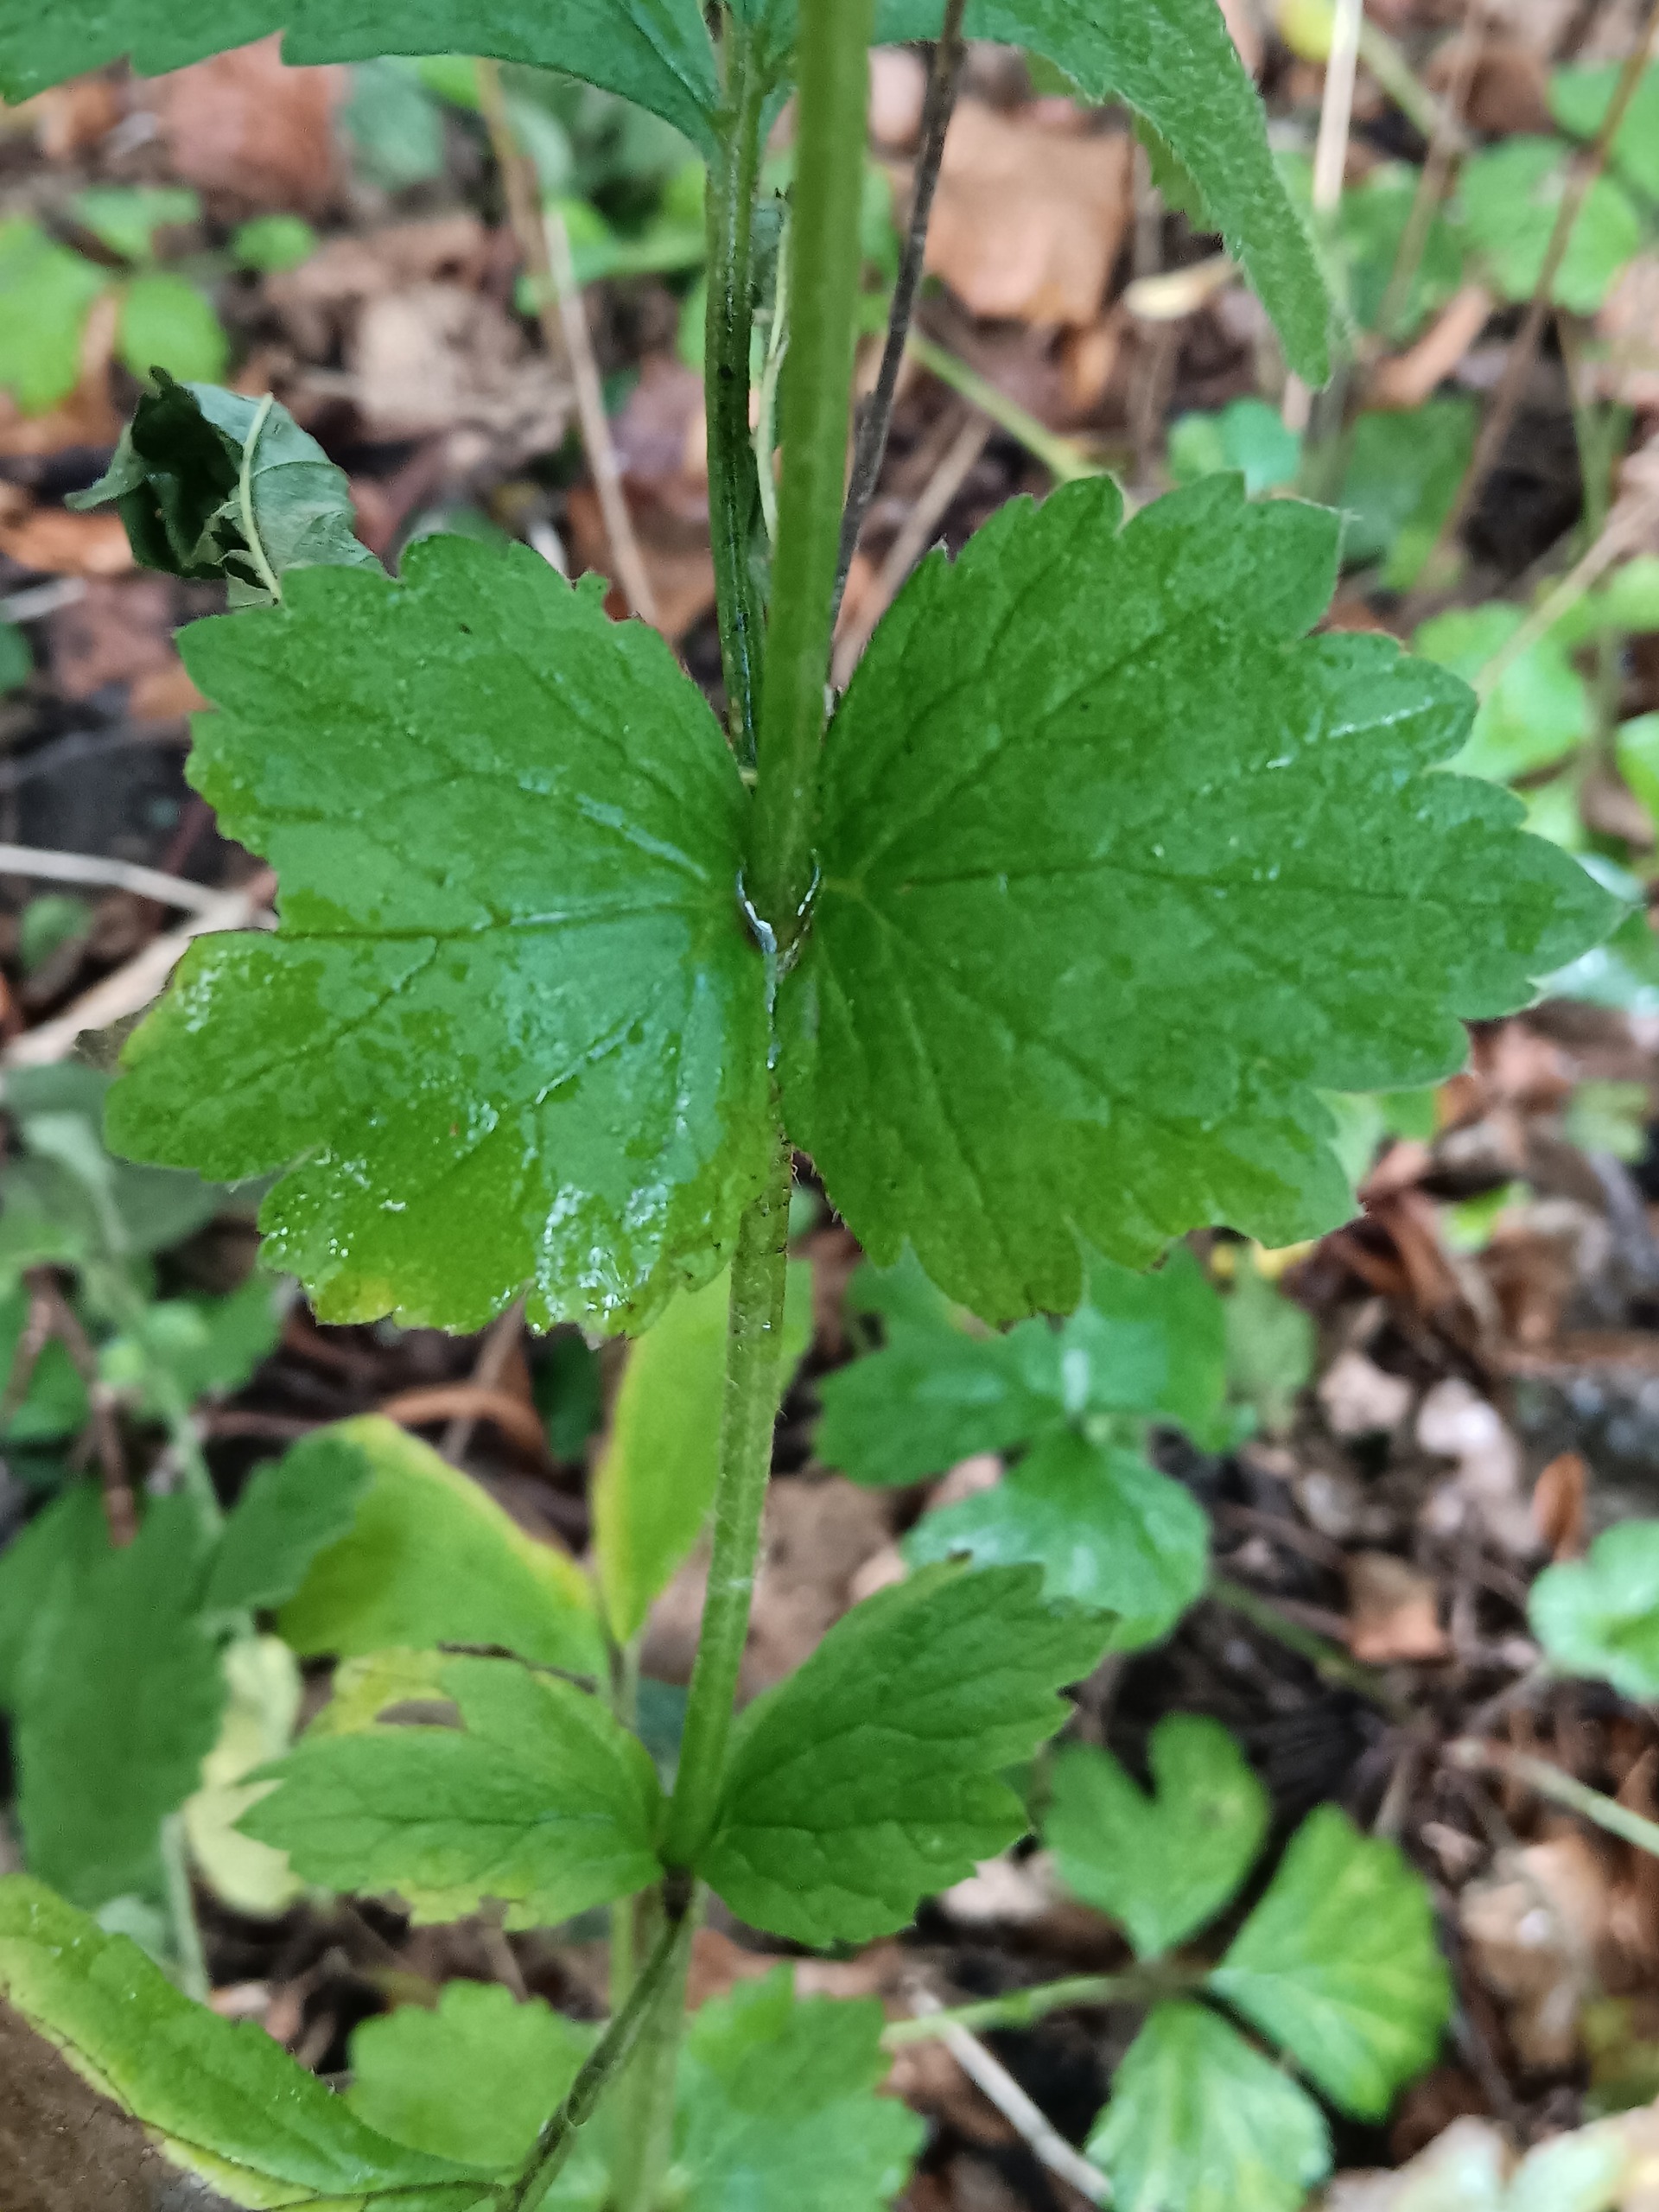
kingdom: Plantae
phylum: Tracheophyta
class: Magnoliopsida
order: Rosales
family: Rosaceae
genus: Geum
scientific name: Geum urbanum
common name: Feber-nellikerod
